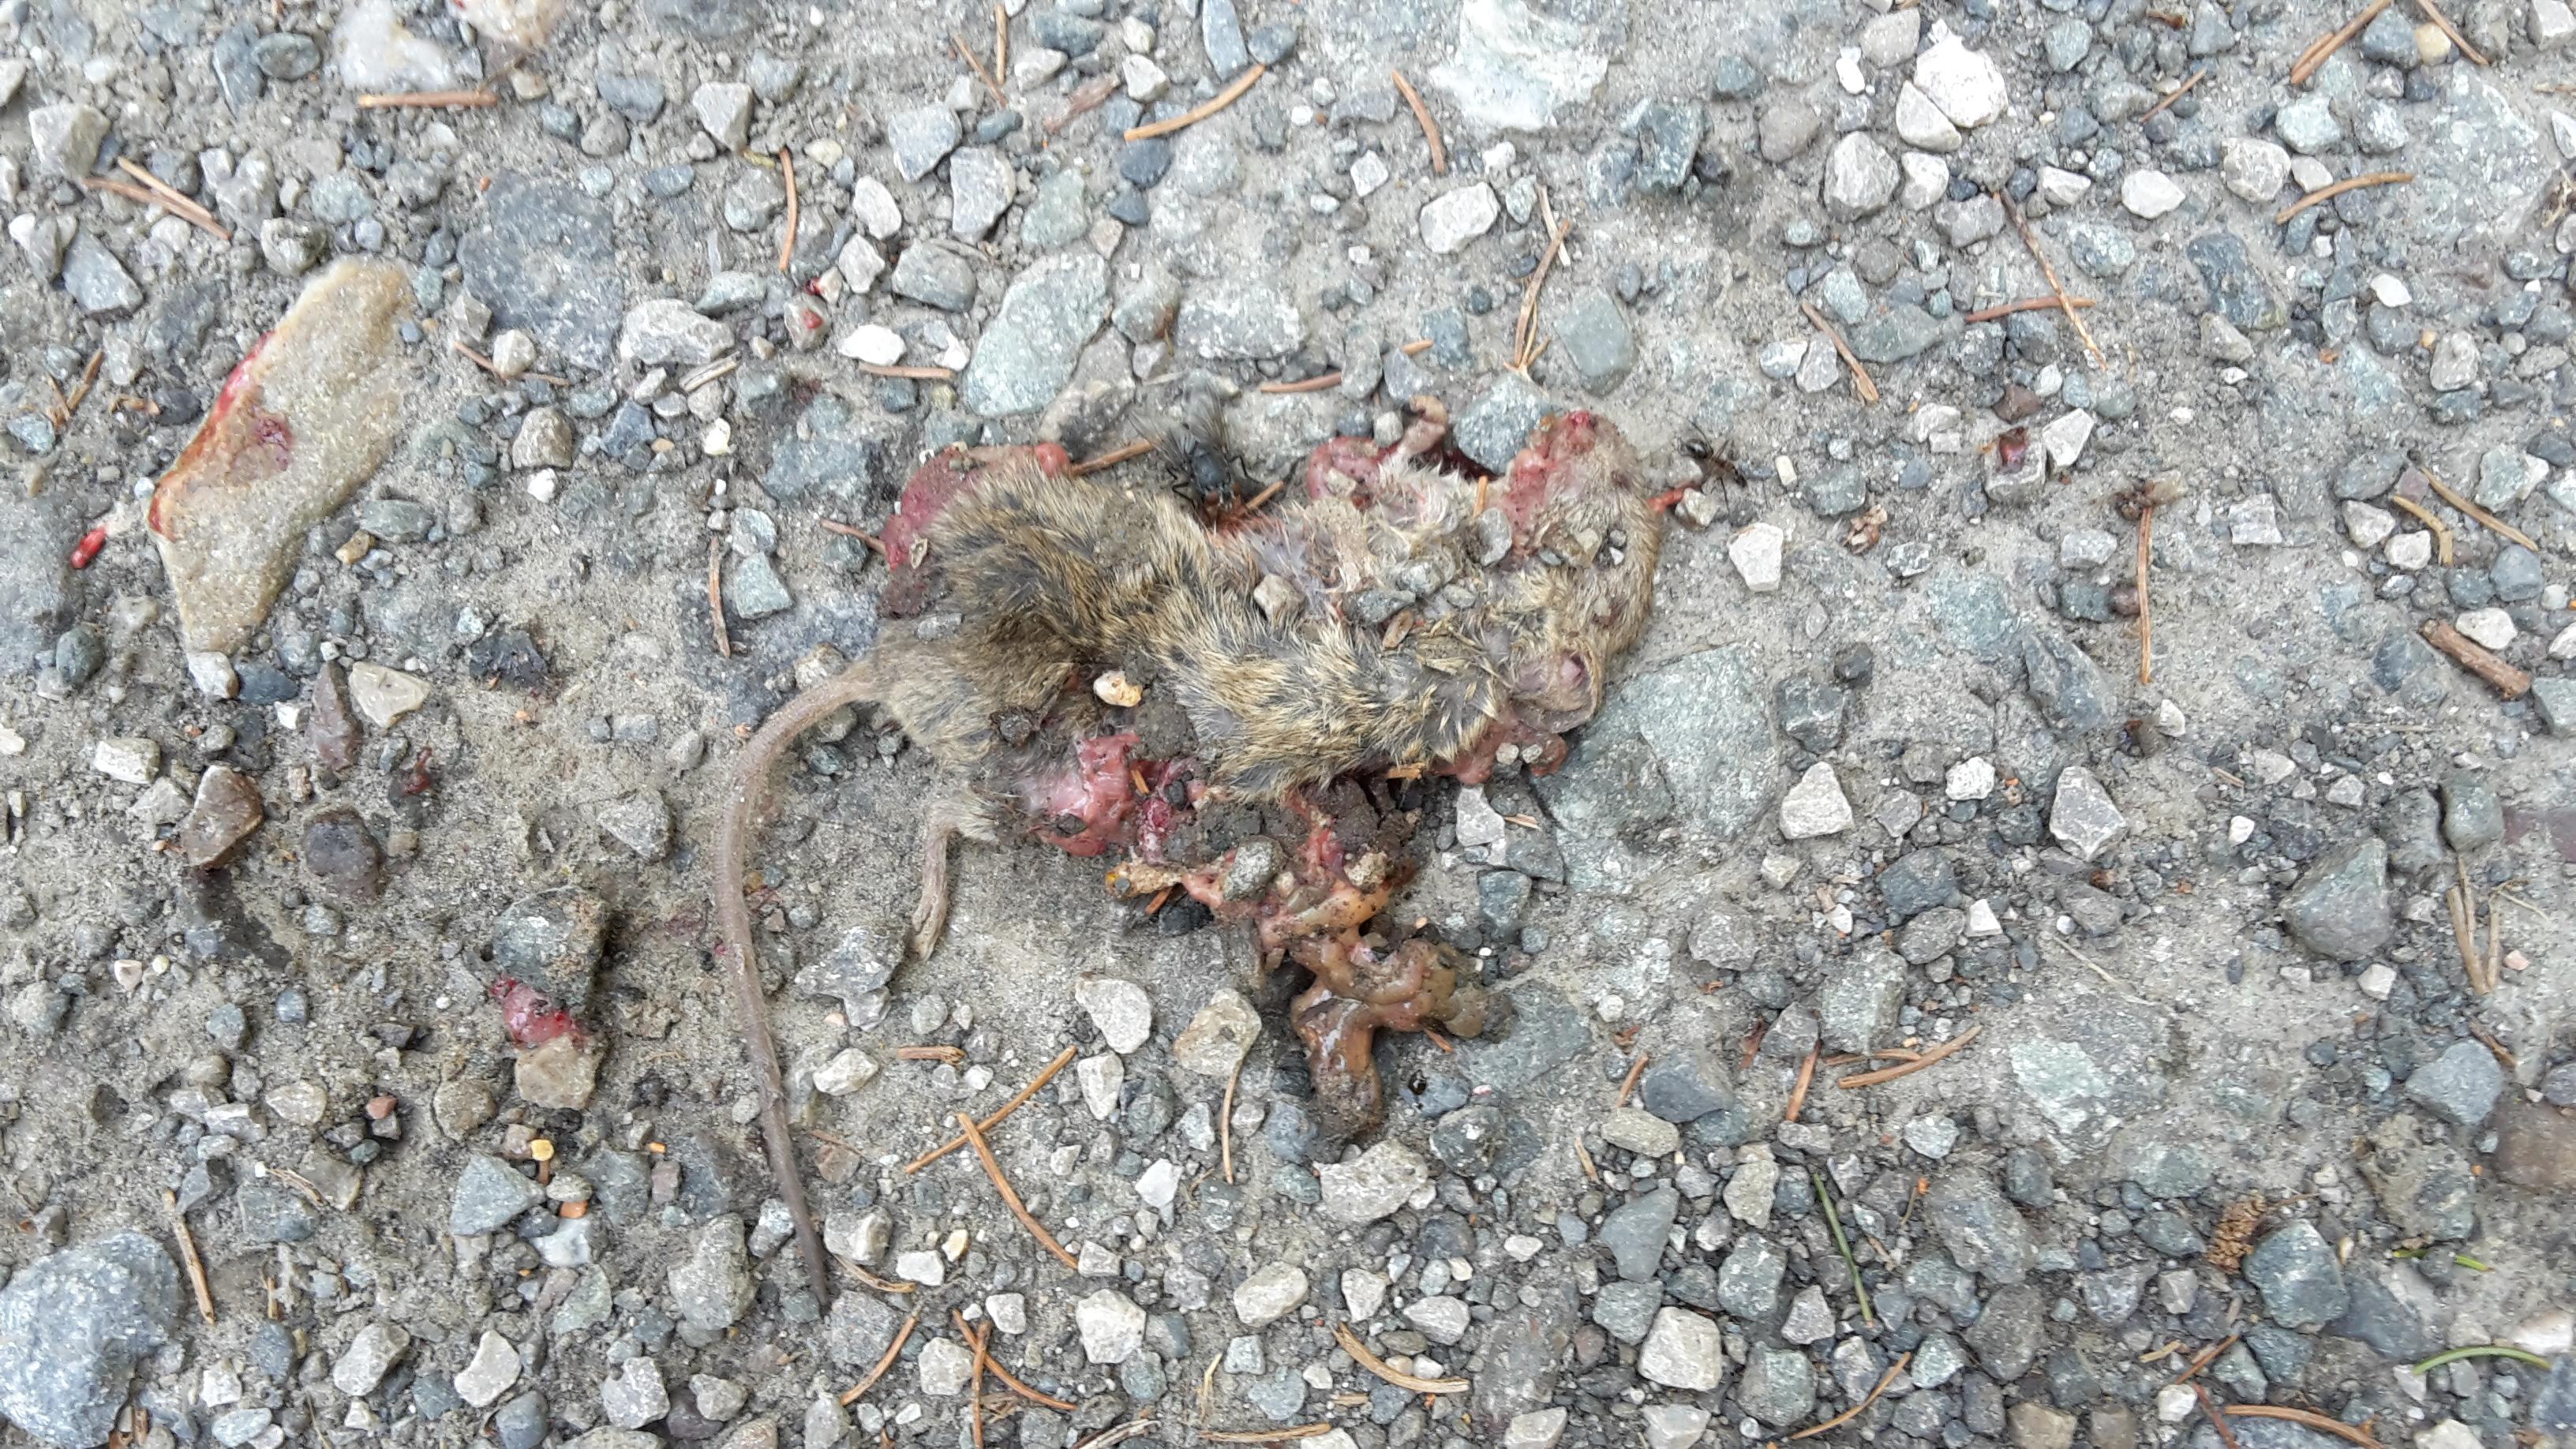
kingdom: Animalia
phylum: Chordata
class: Mammalia
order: Rodentia
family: Muridae
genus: Apodemus
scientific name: Apodemus
